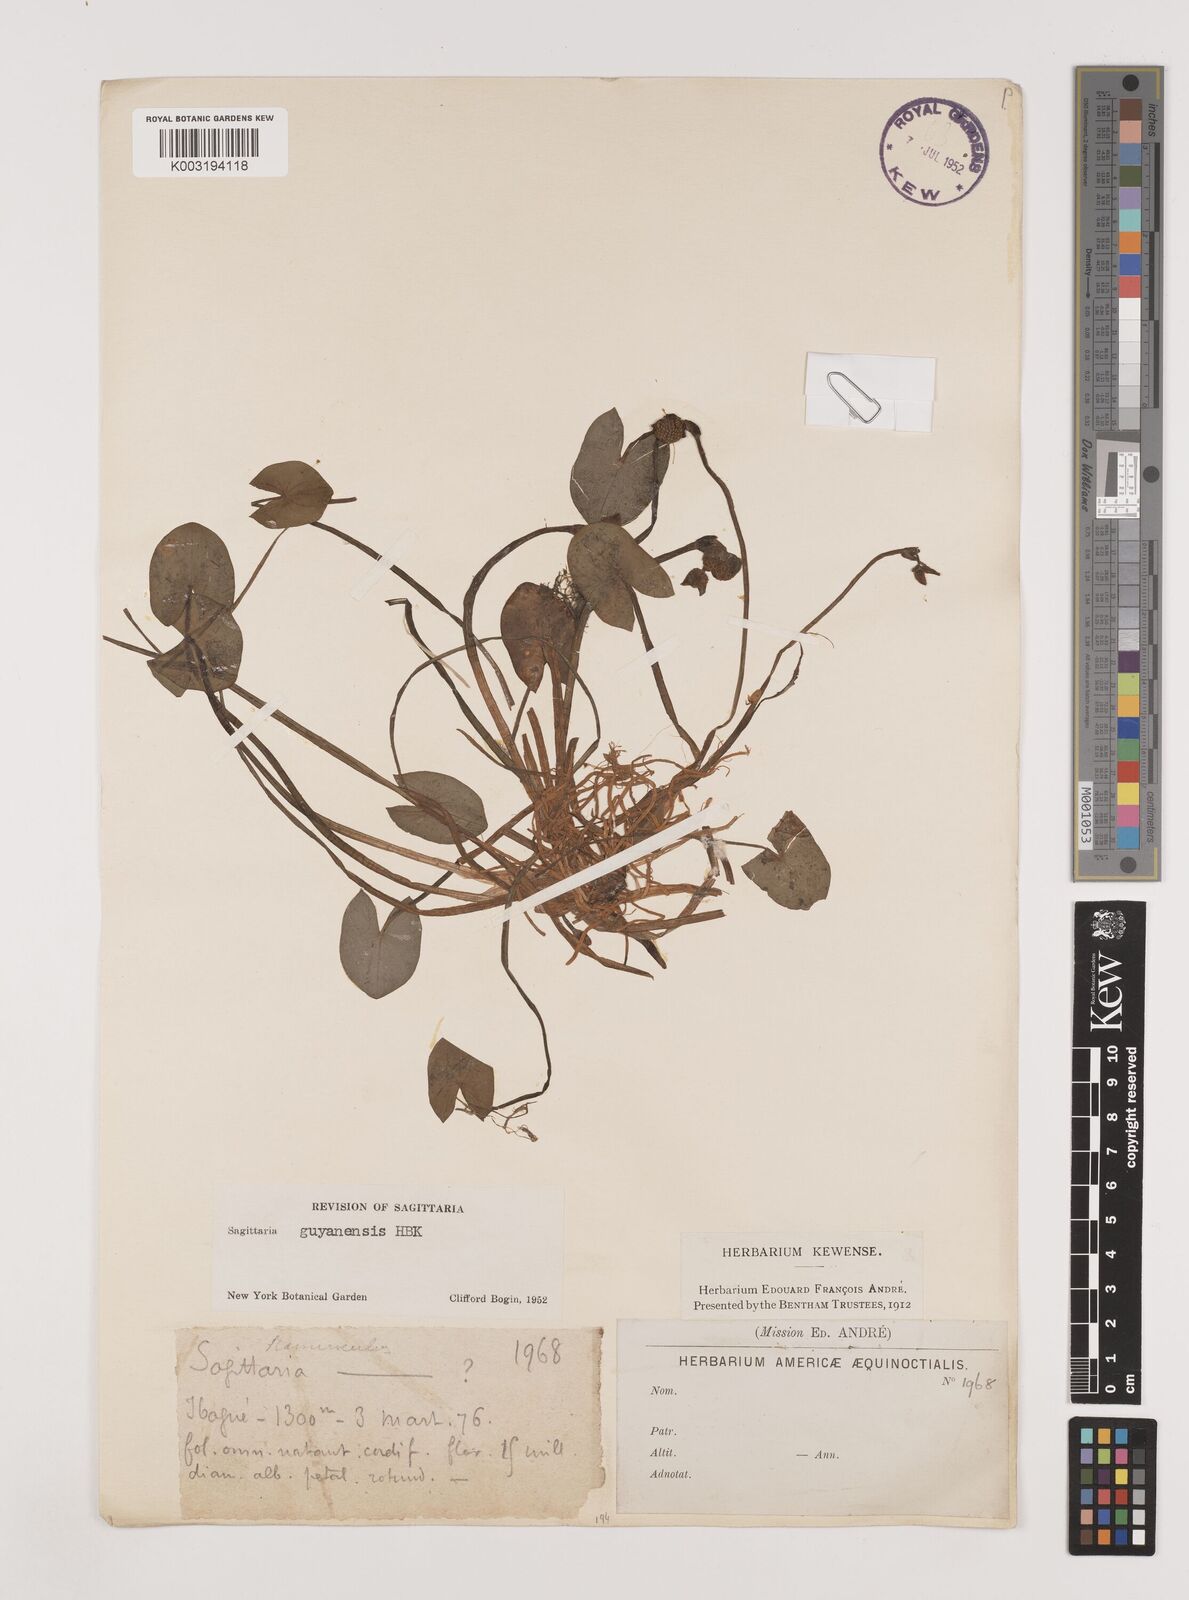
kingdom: Plantae
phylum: Tracheophyta
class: Liliopsida
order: Alismatales
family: Alismataceae
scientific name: Alismataceae
